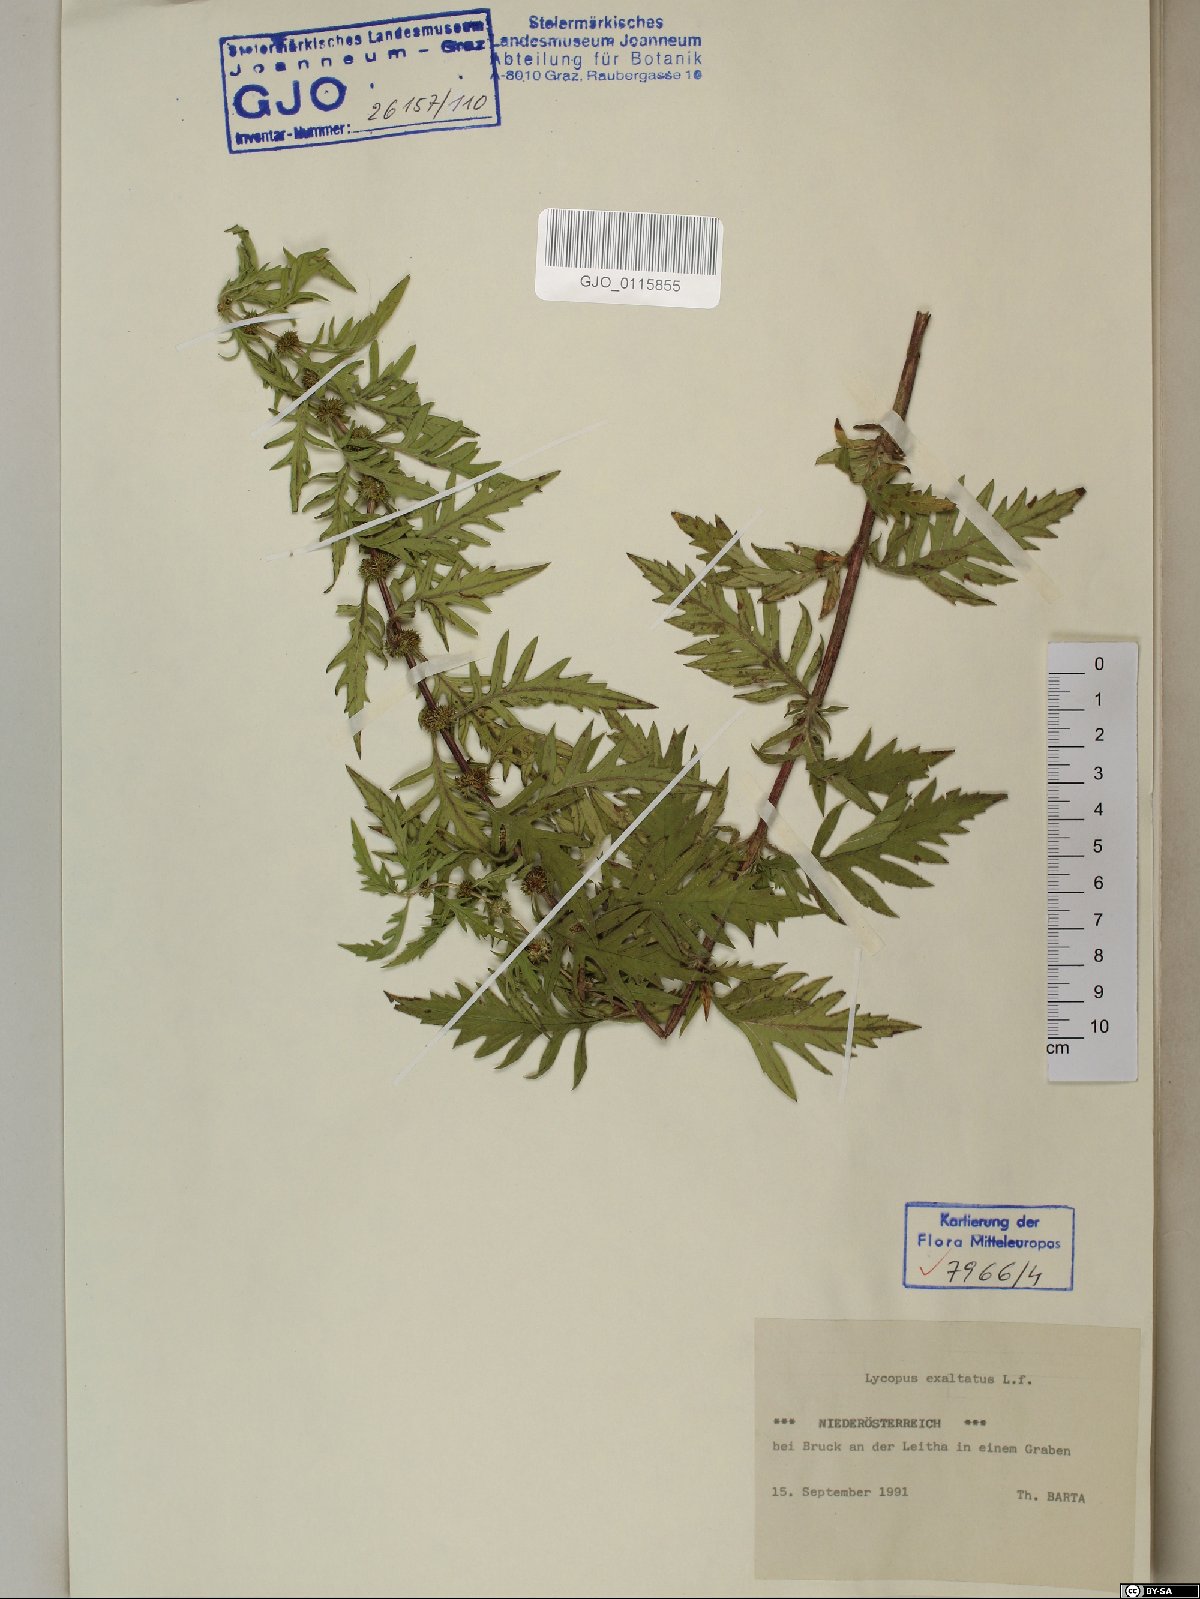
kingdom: Plantae
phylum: Tracheophyta
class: Magnoliopsida
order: Lamiales
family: Lamiaceae
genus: Lycopus
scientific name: Lycopus exaltatus
